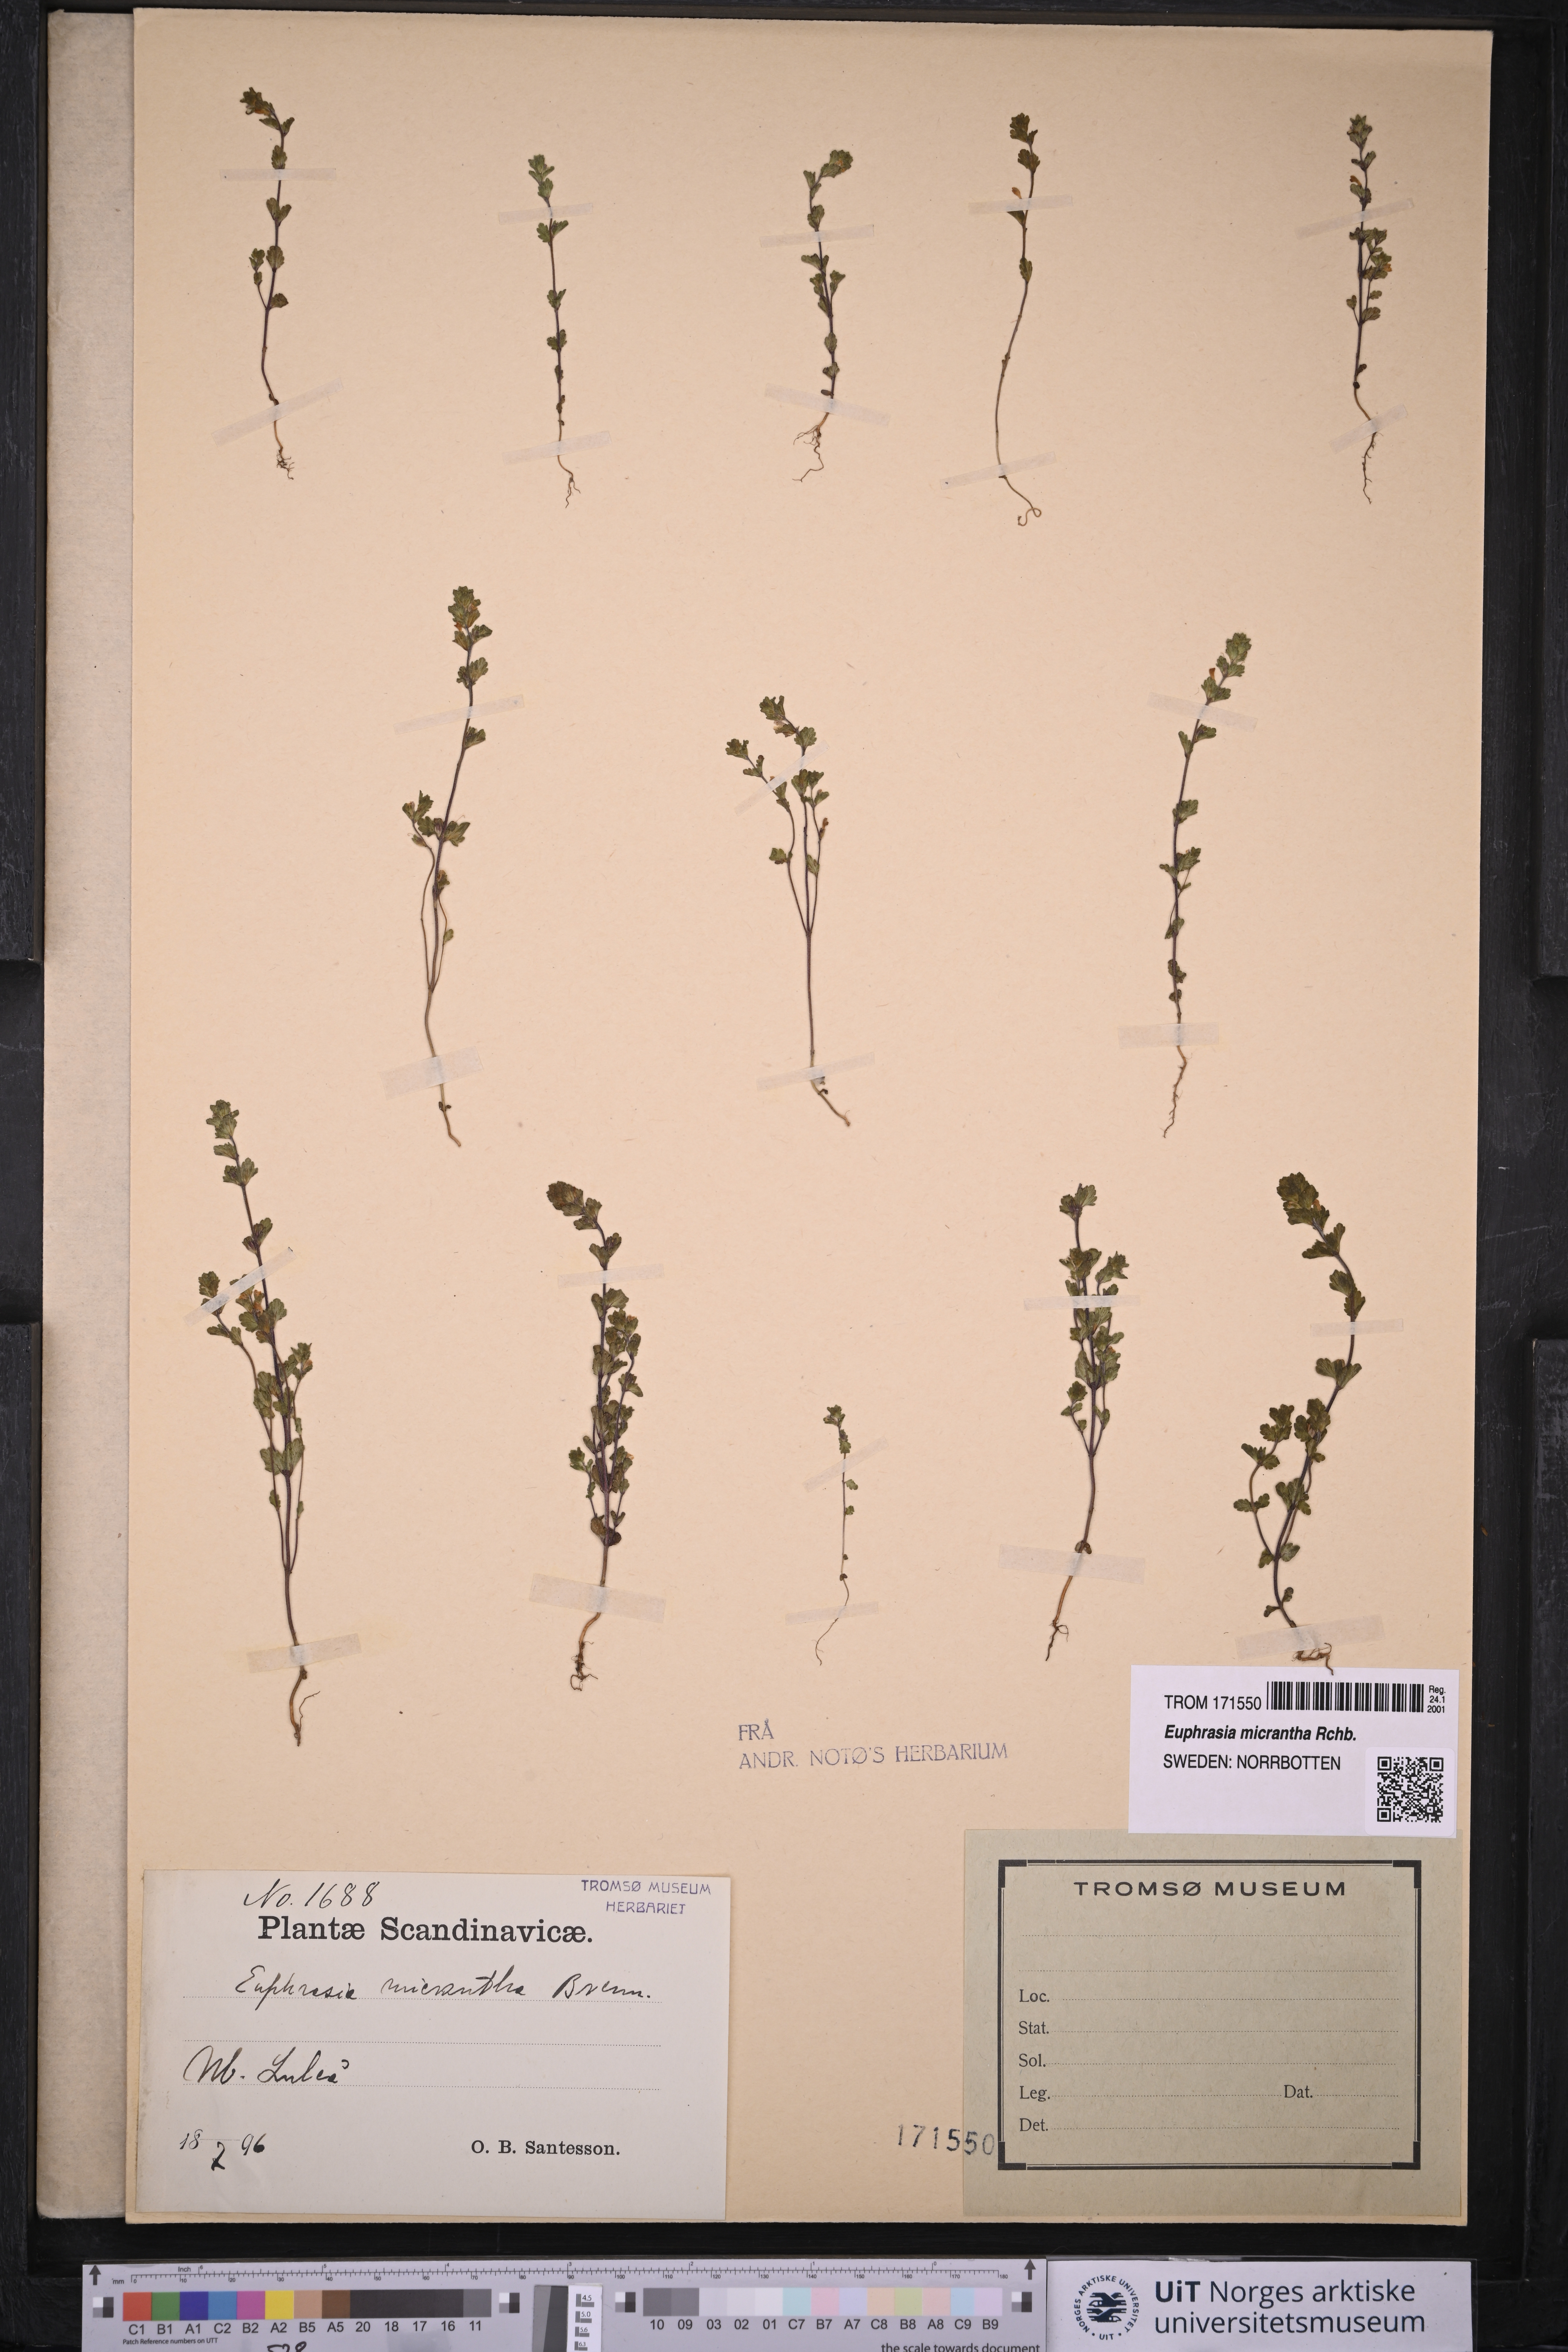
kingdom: Plantae
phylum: Tracheophyta
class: Magnoliopsida
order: Lamiales
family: Orobanchaceae
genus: Euphrasia
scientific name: Euphrasia bottnica
